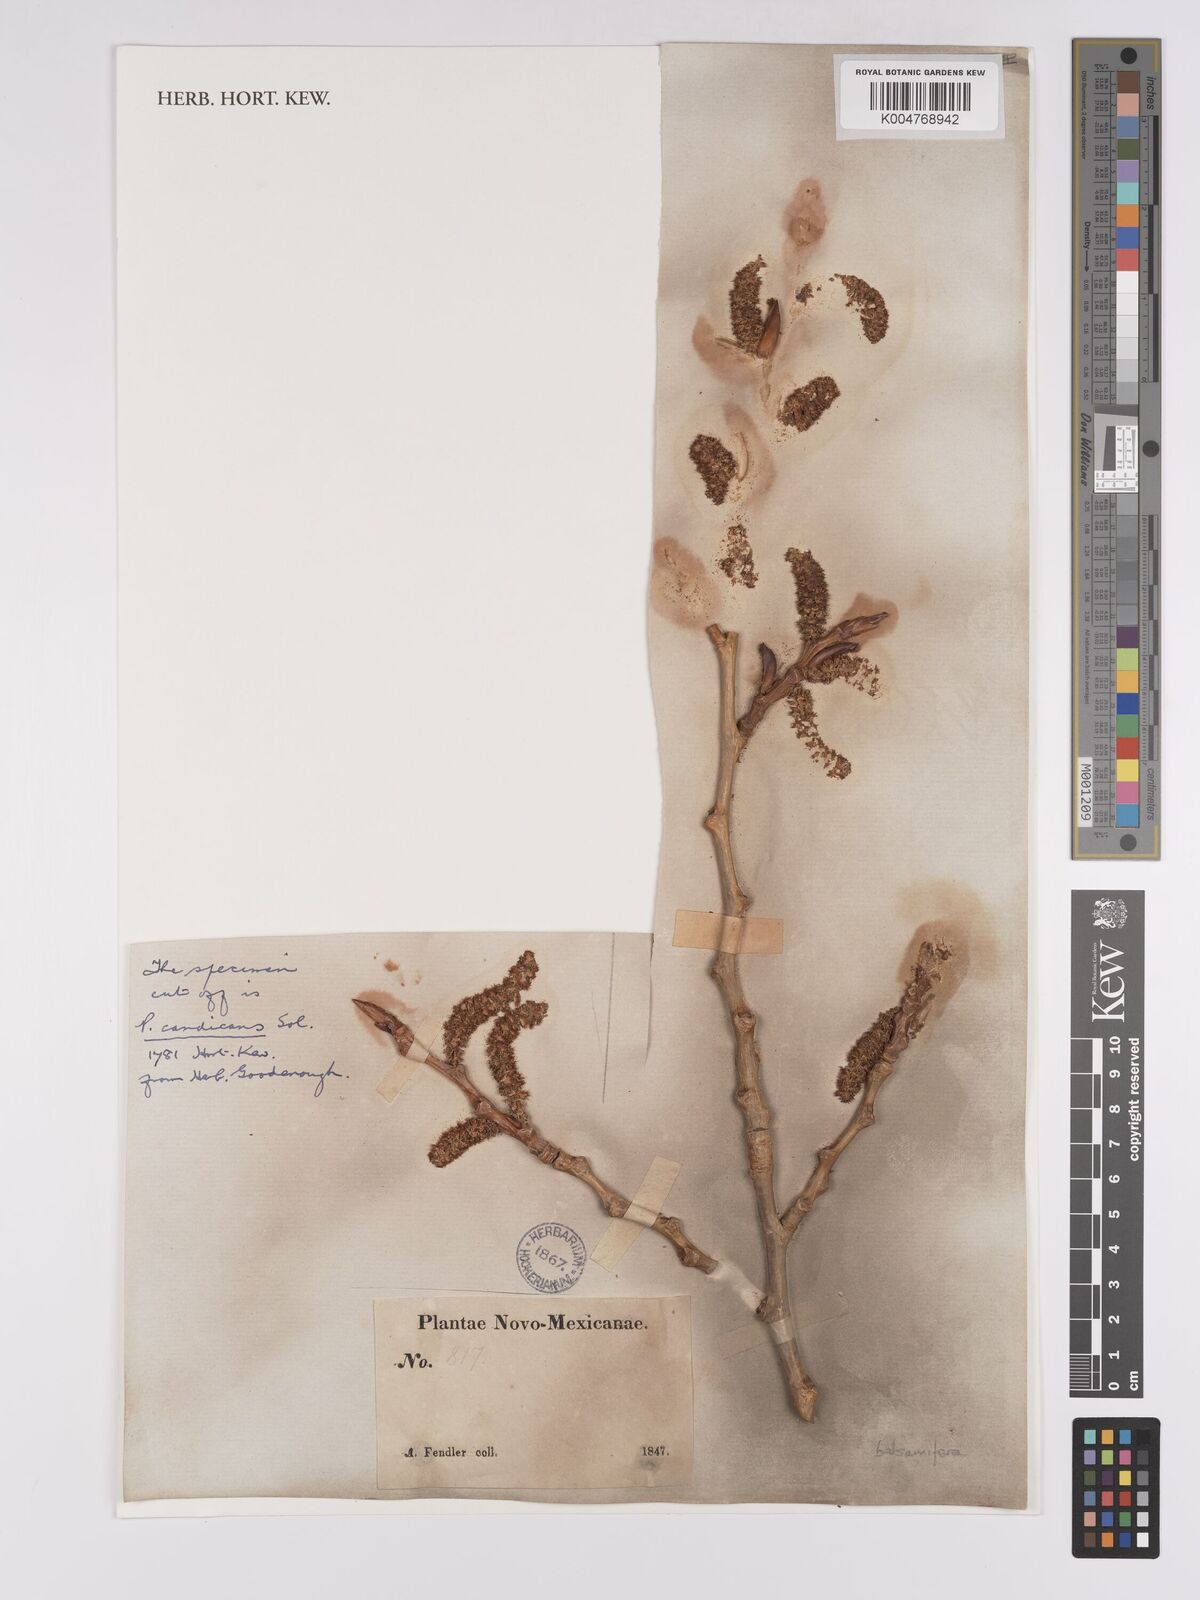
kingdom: Plantae
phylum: Tracheophyta
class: Magnoliopsida
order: Malpighiales
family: Salicaceae
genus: Populus
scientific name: Populus fremontii
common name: Fremont's cottonwood
